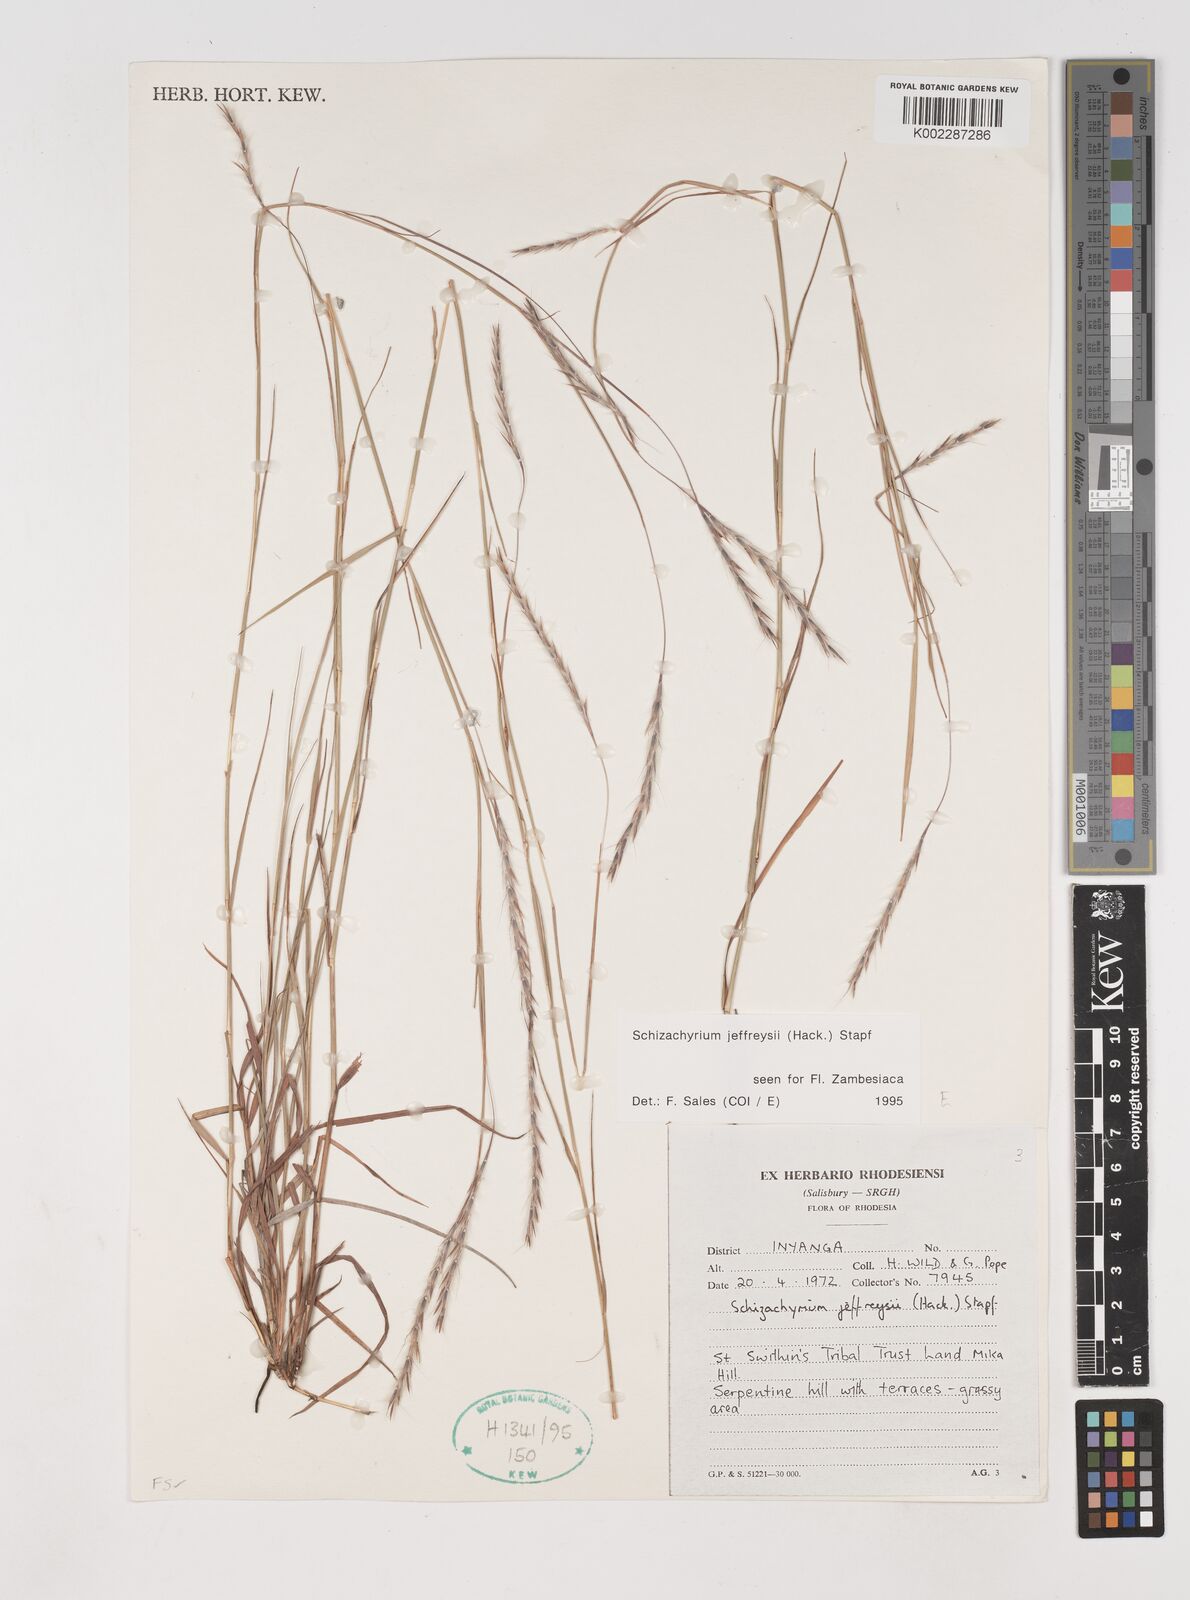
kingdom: Plantae
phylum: Tracheophyta
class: Liliopsida
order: Poales
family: Poaceae
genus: Schizachyrium
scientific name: Schizachyrium jeffreysii
